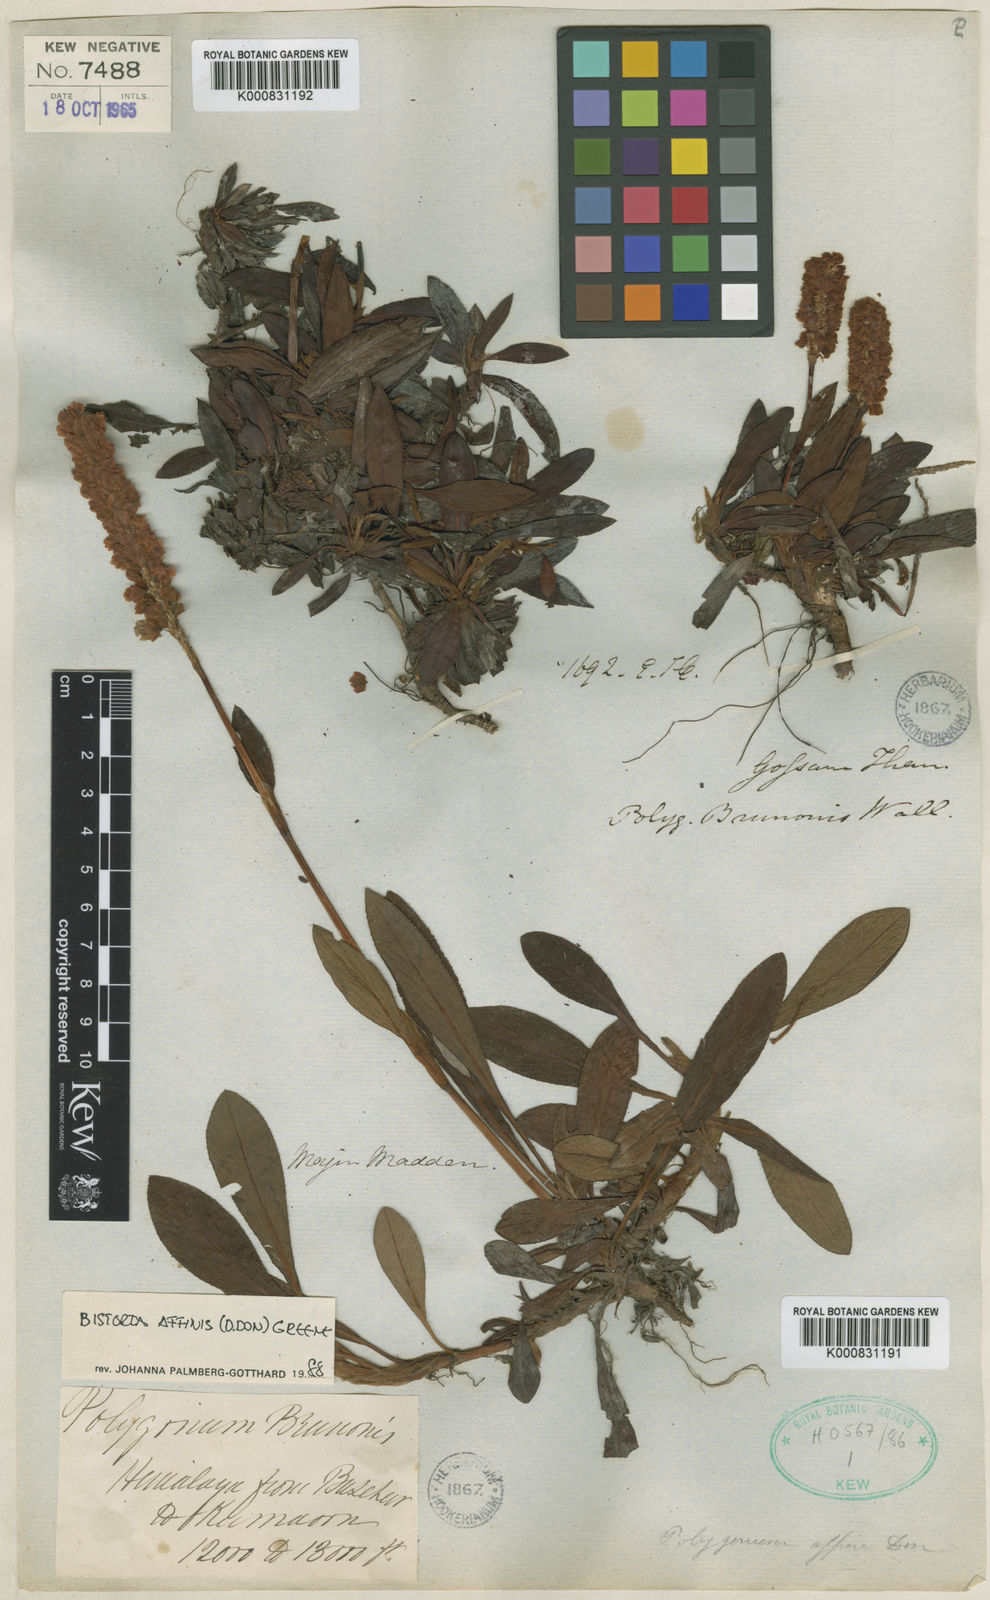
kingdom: Plantae
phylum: Tracheophyta
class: Magnoliopsida
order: Caryophyllales
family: Polygonaceae
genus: Bistorta
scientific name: Bistorta affinis
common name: Himalayan fleeceflower
